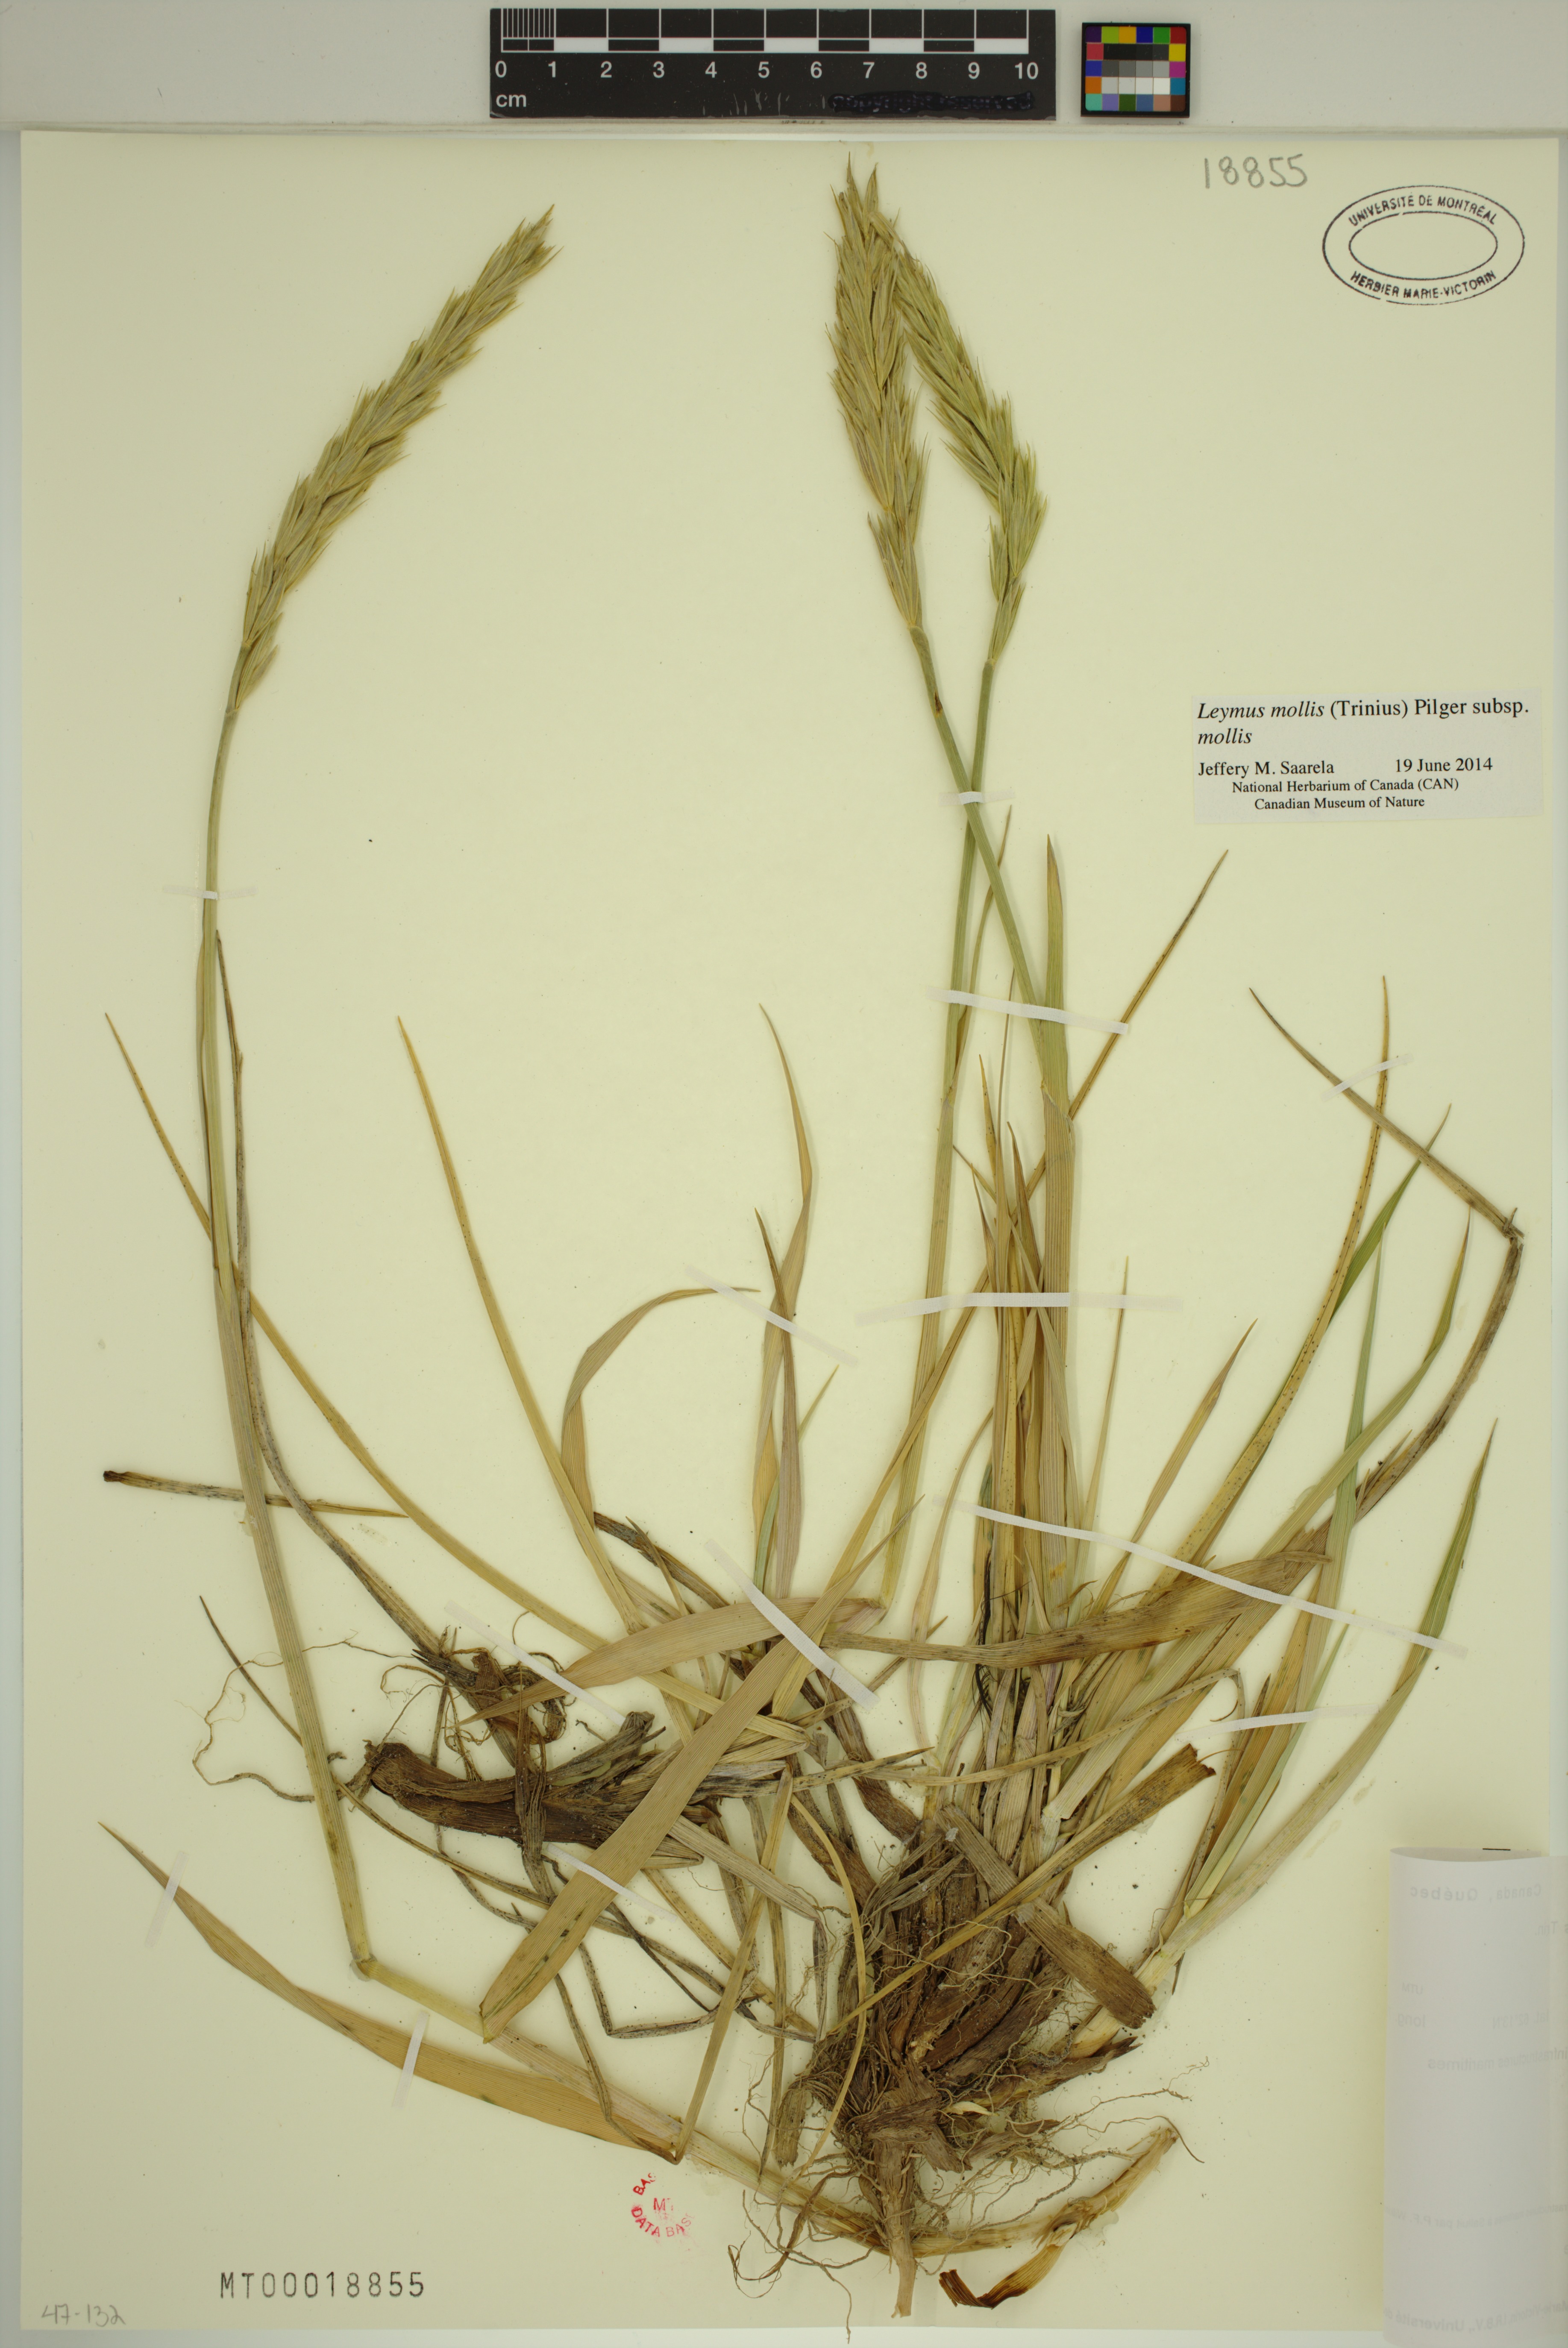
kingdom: Plantae
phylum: Tracheophyta
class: Liliopsida
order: Poales
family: Poaceae
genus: Leymus
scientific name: Leymus mollis
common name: American dune grass
